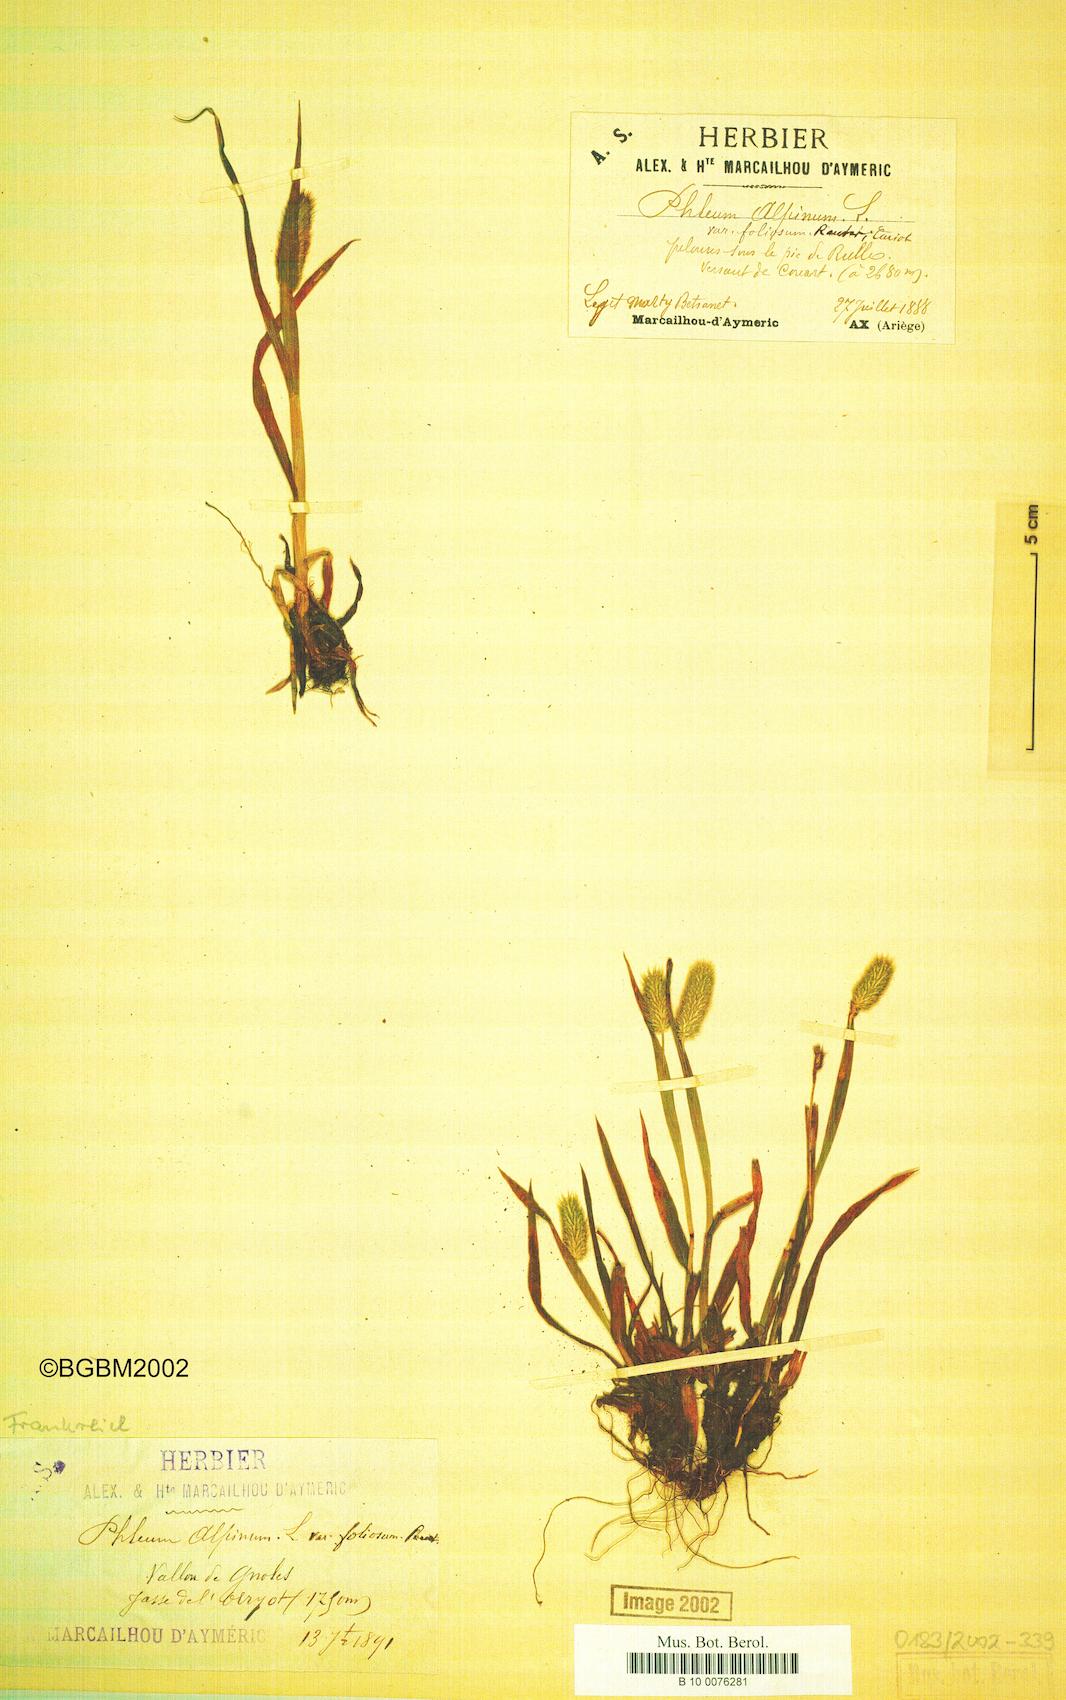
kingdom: Plantae
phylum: Tracheophyta
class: Liliopsida
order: Poales
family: Poaceae
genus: Phleum
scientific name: Phleum alpinum
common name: Alpine cat's-tail
